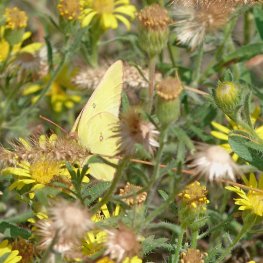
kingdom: Animalia
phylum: Arthropoda
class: Insecta
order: Lepidoptera
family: Pieridae
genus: Colias
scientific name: Colias philodice
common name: Clouded Sulphur
